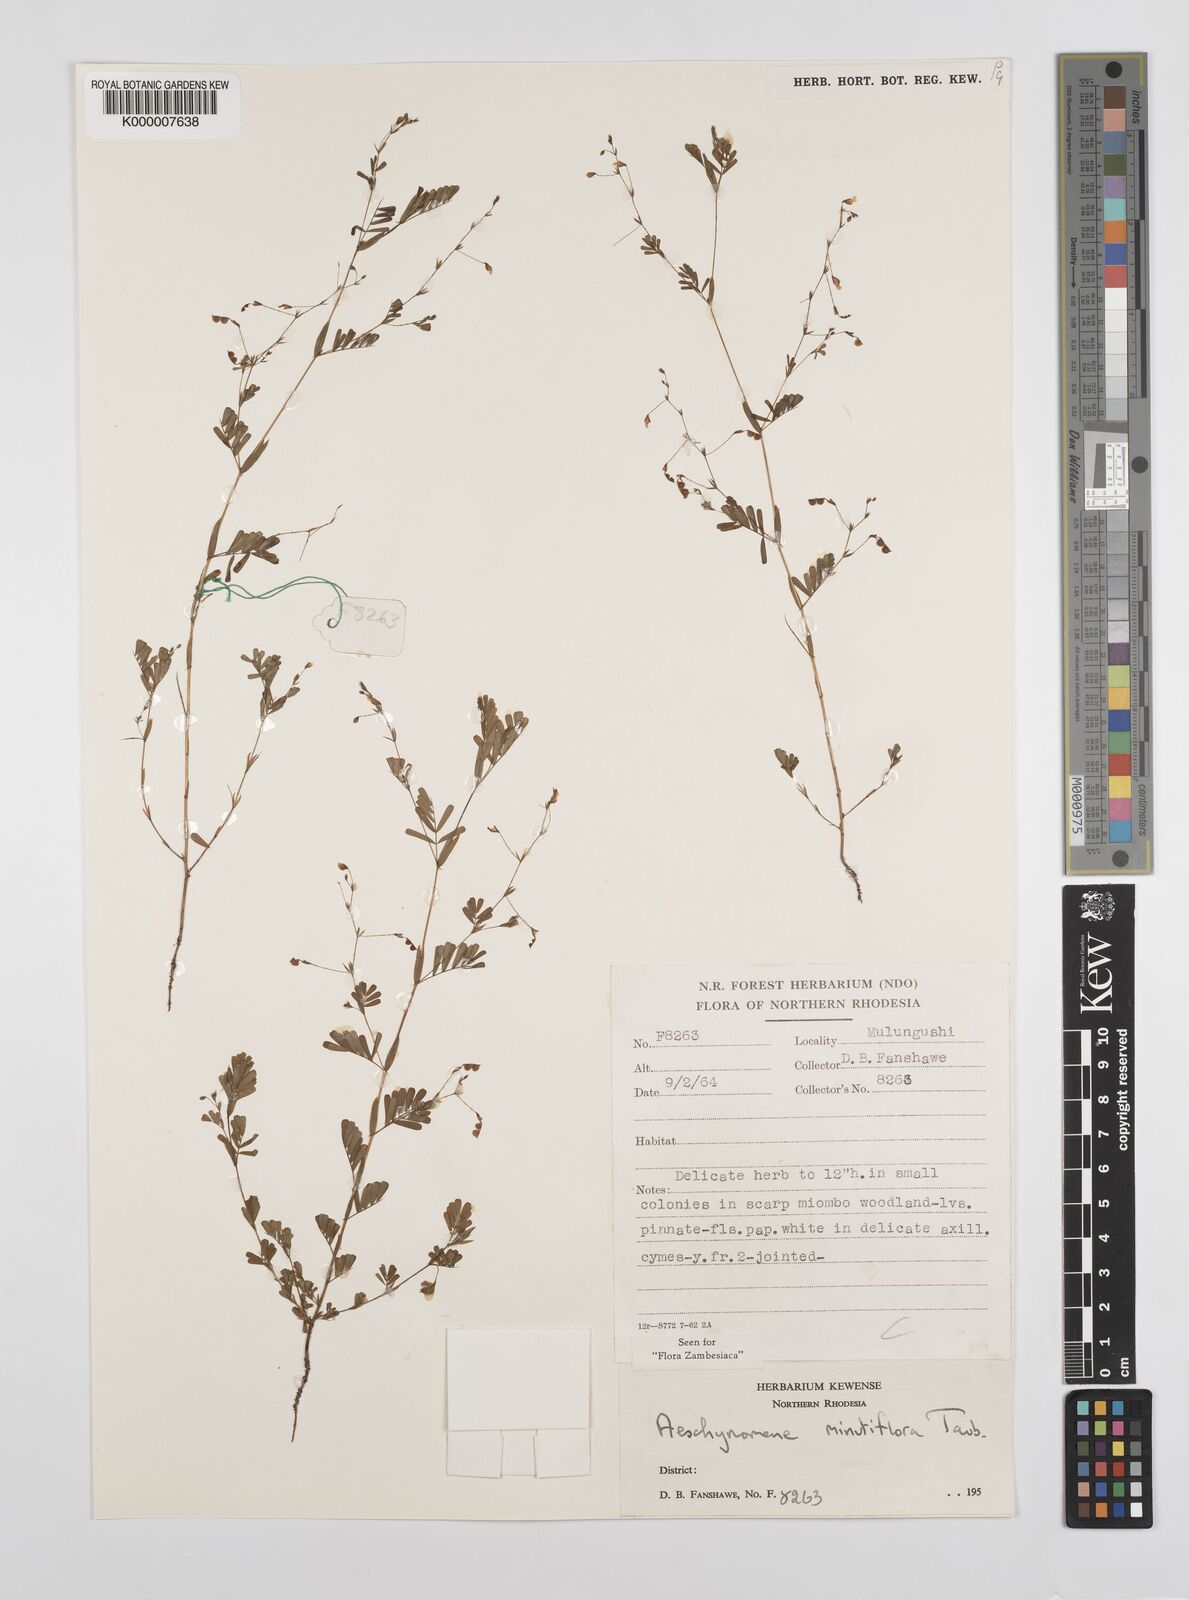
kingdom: Plantae
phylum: Tracheophyta
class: Magnoliopsida
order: Fabales
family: Fabaceae
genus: Aeschynomene
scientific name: Aeschynomene minutiflora
